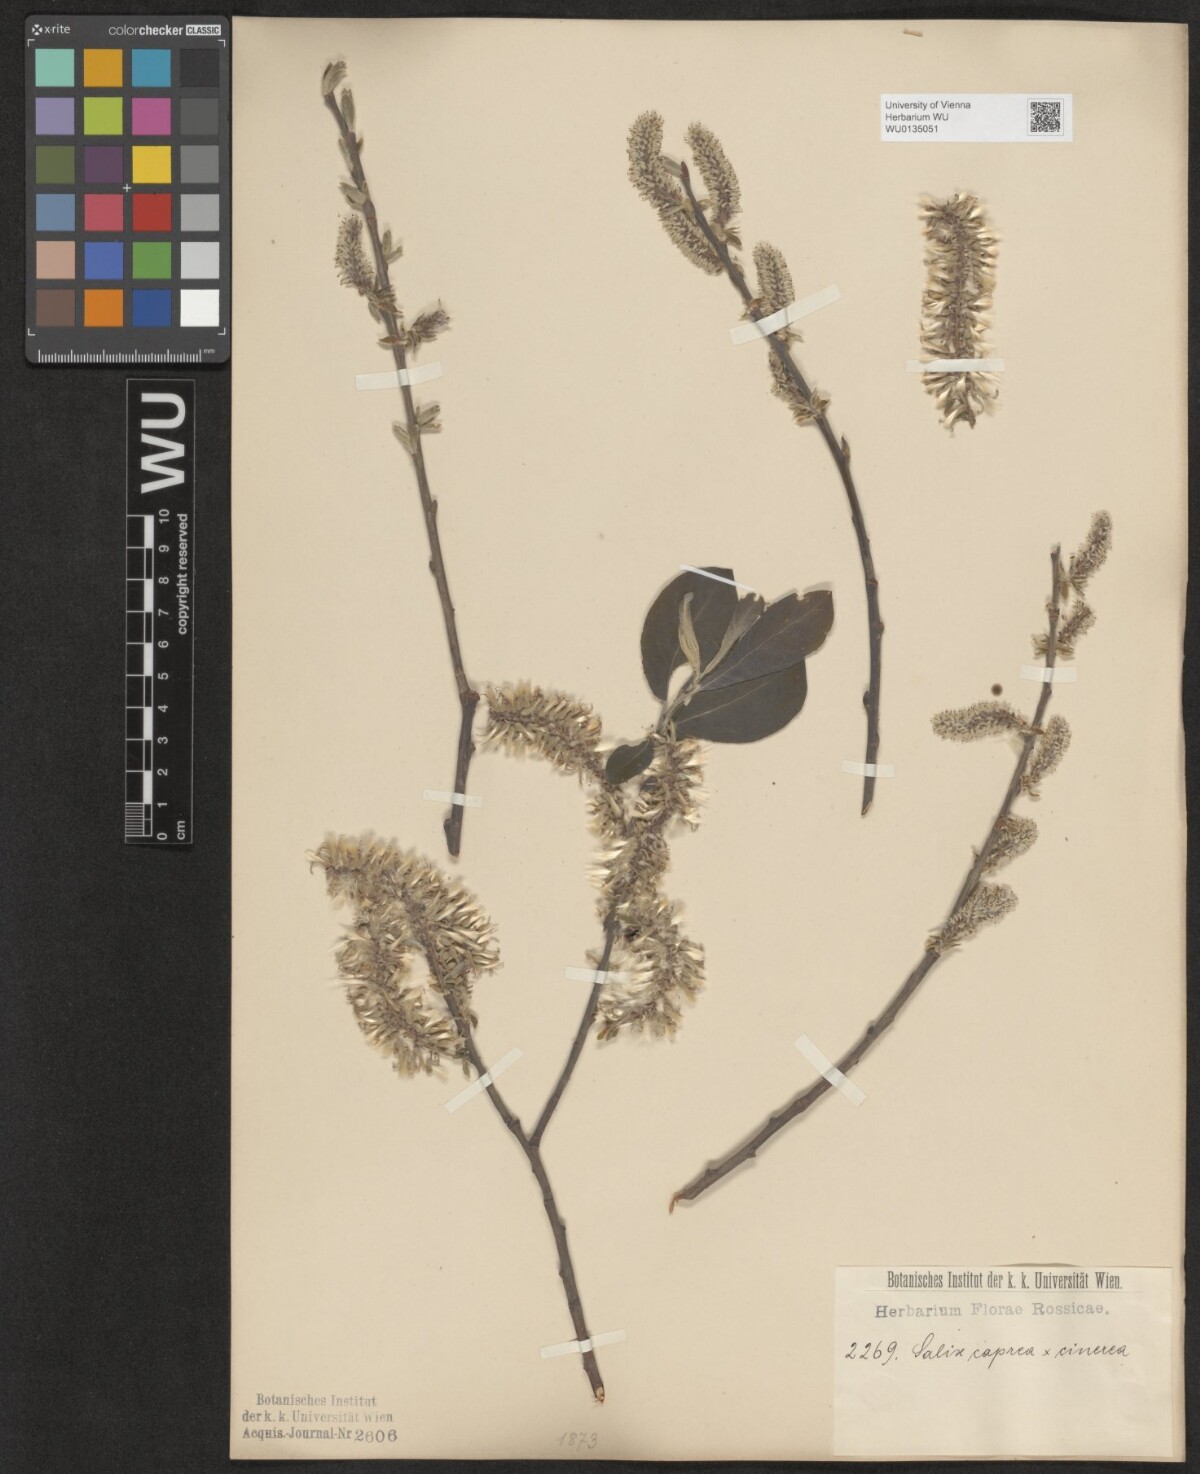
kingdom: Plantae
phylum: Tracheophyta
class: Magnoliopsida
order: Malpighiales
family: Salicaceae
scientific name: Salicaceae
